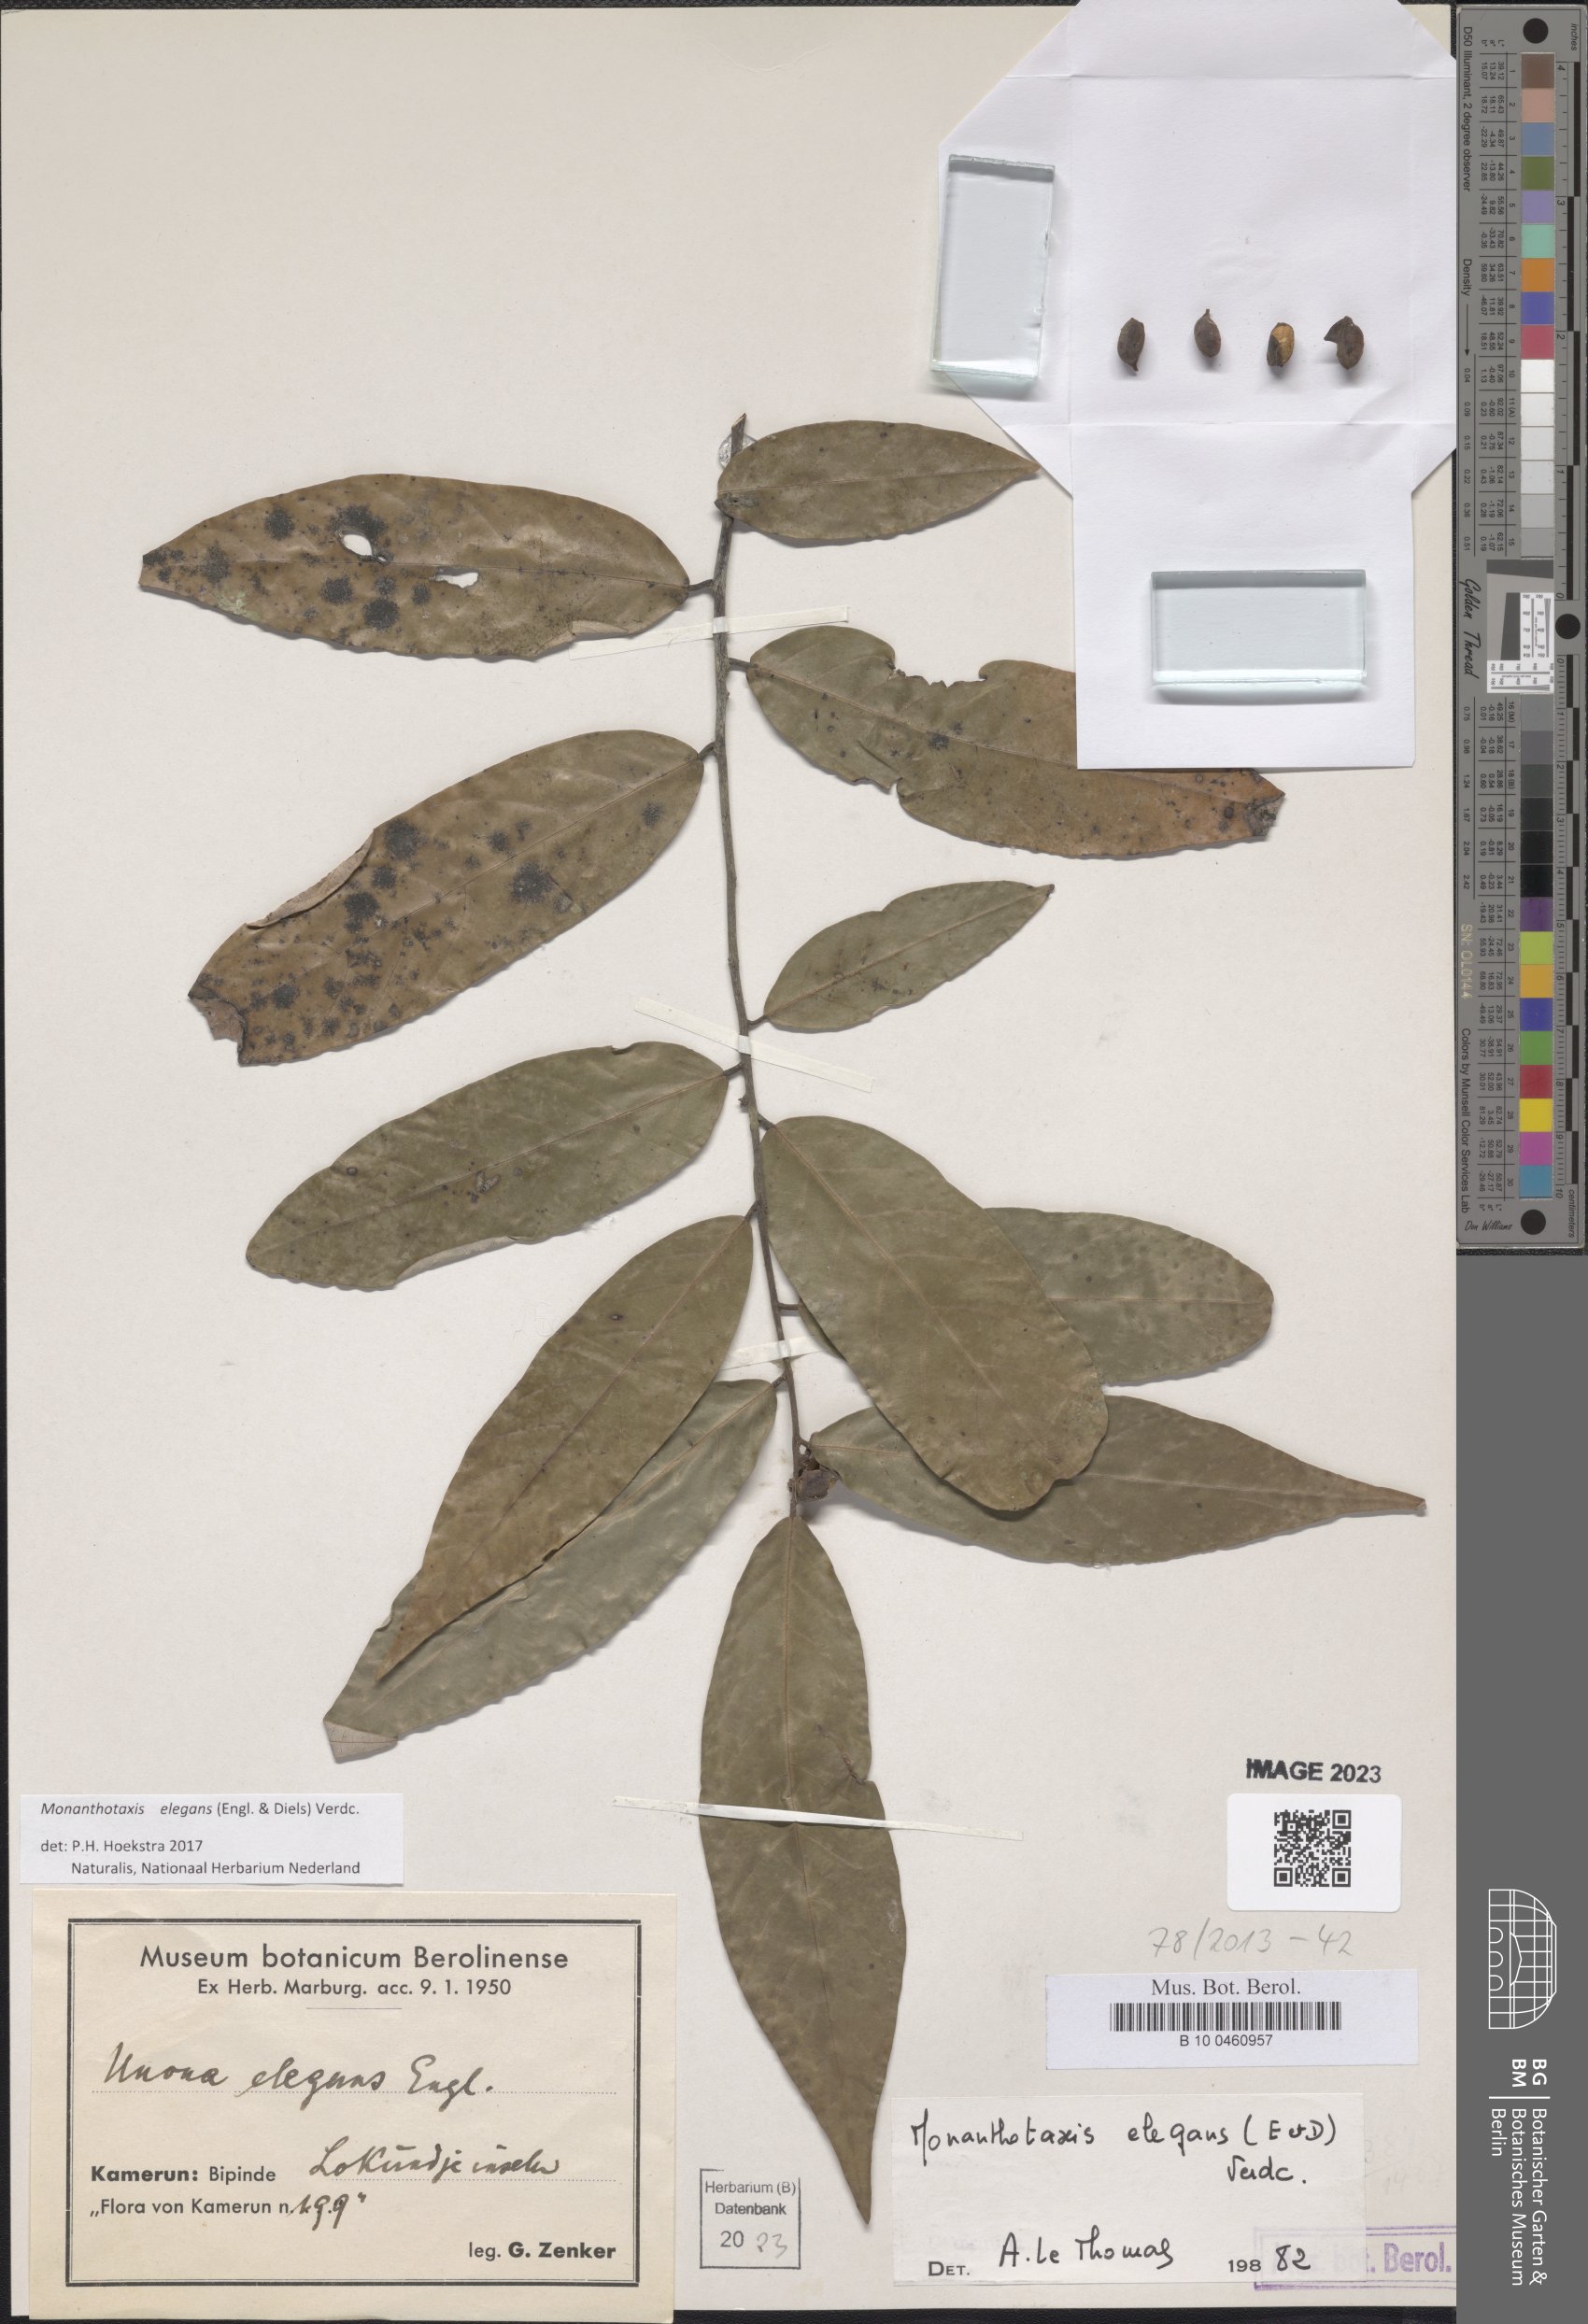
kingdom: Plantae
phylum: Tracheophyta
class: Magnoliopsida
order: Magnoliales
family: Annonaceae
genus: Monanthotaxis
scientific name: Monanthotaxis elegans
